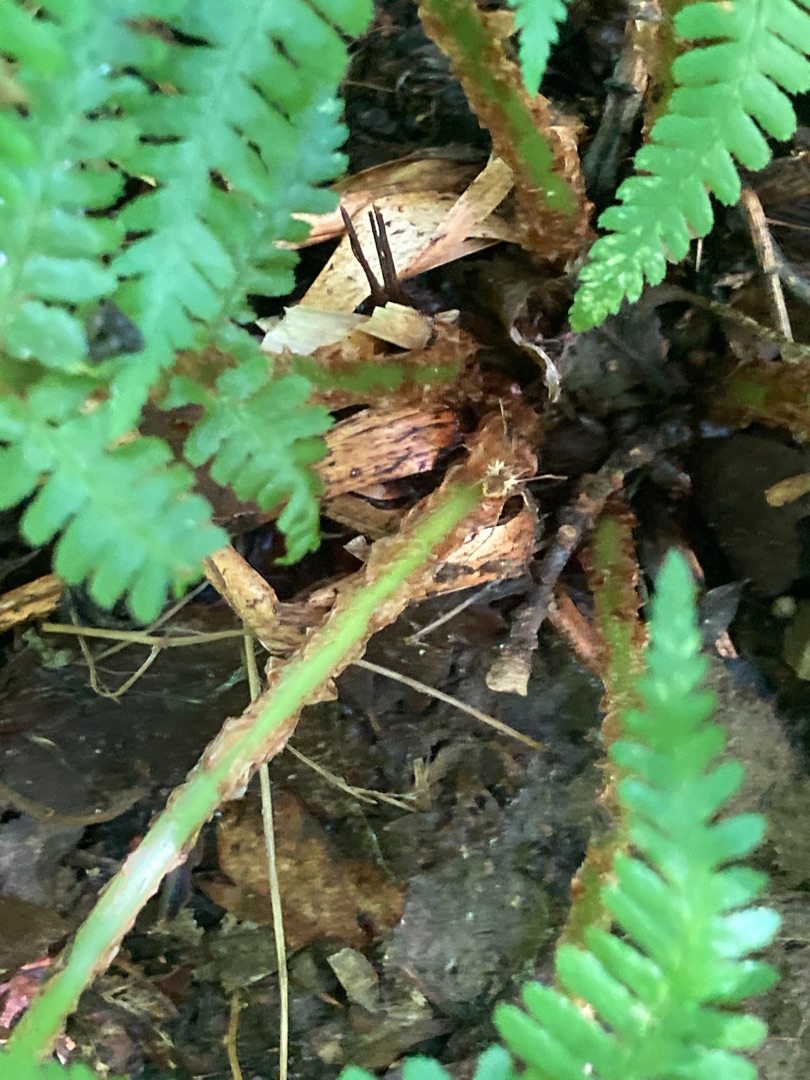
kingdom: Plantae
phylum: Tracheophyta
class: Polypodiopsida
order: Polypodiales
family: Dryopteridaceae
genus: Dryopteris
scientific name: Dryopteris filix-mas
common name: Almindelig mangeløv
